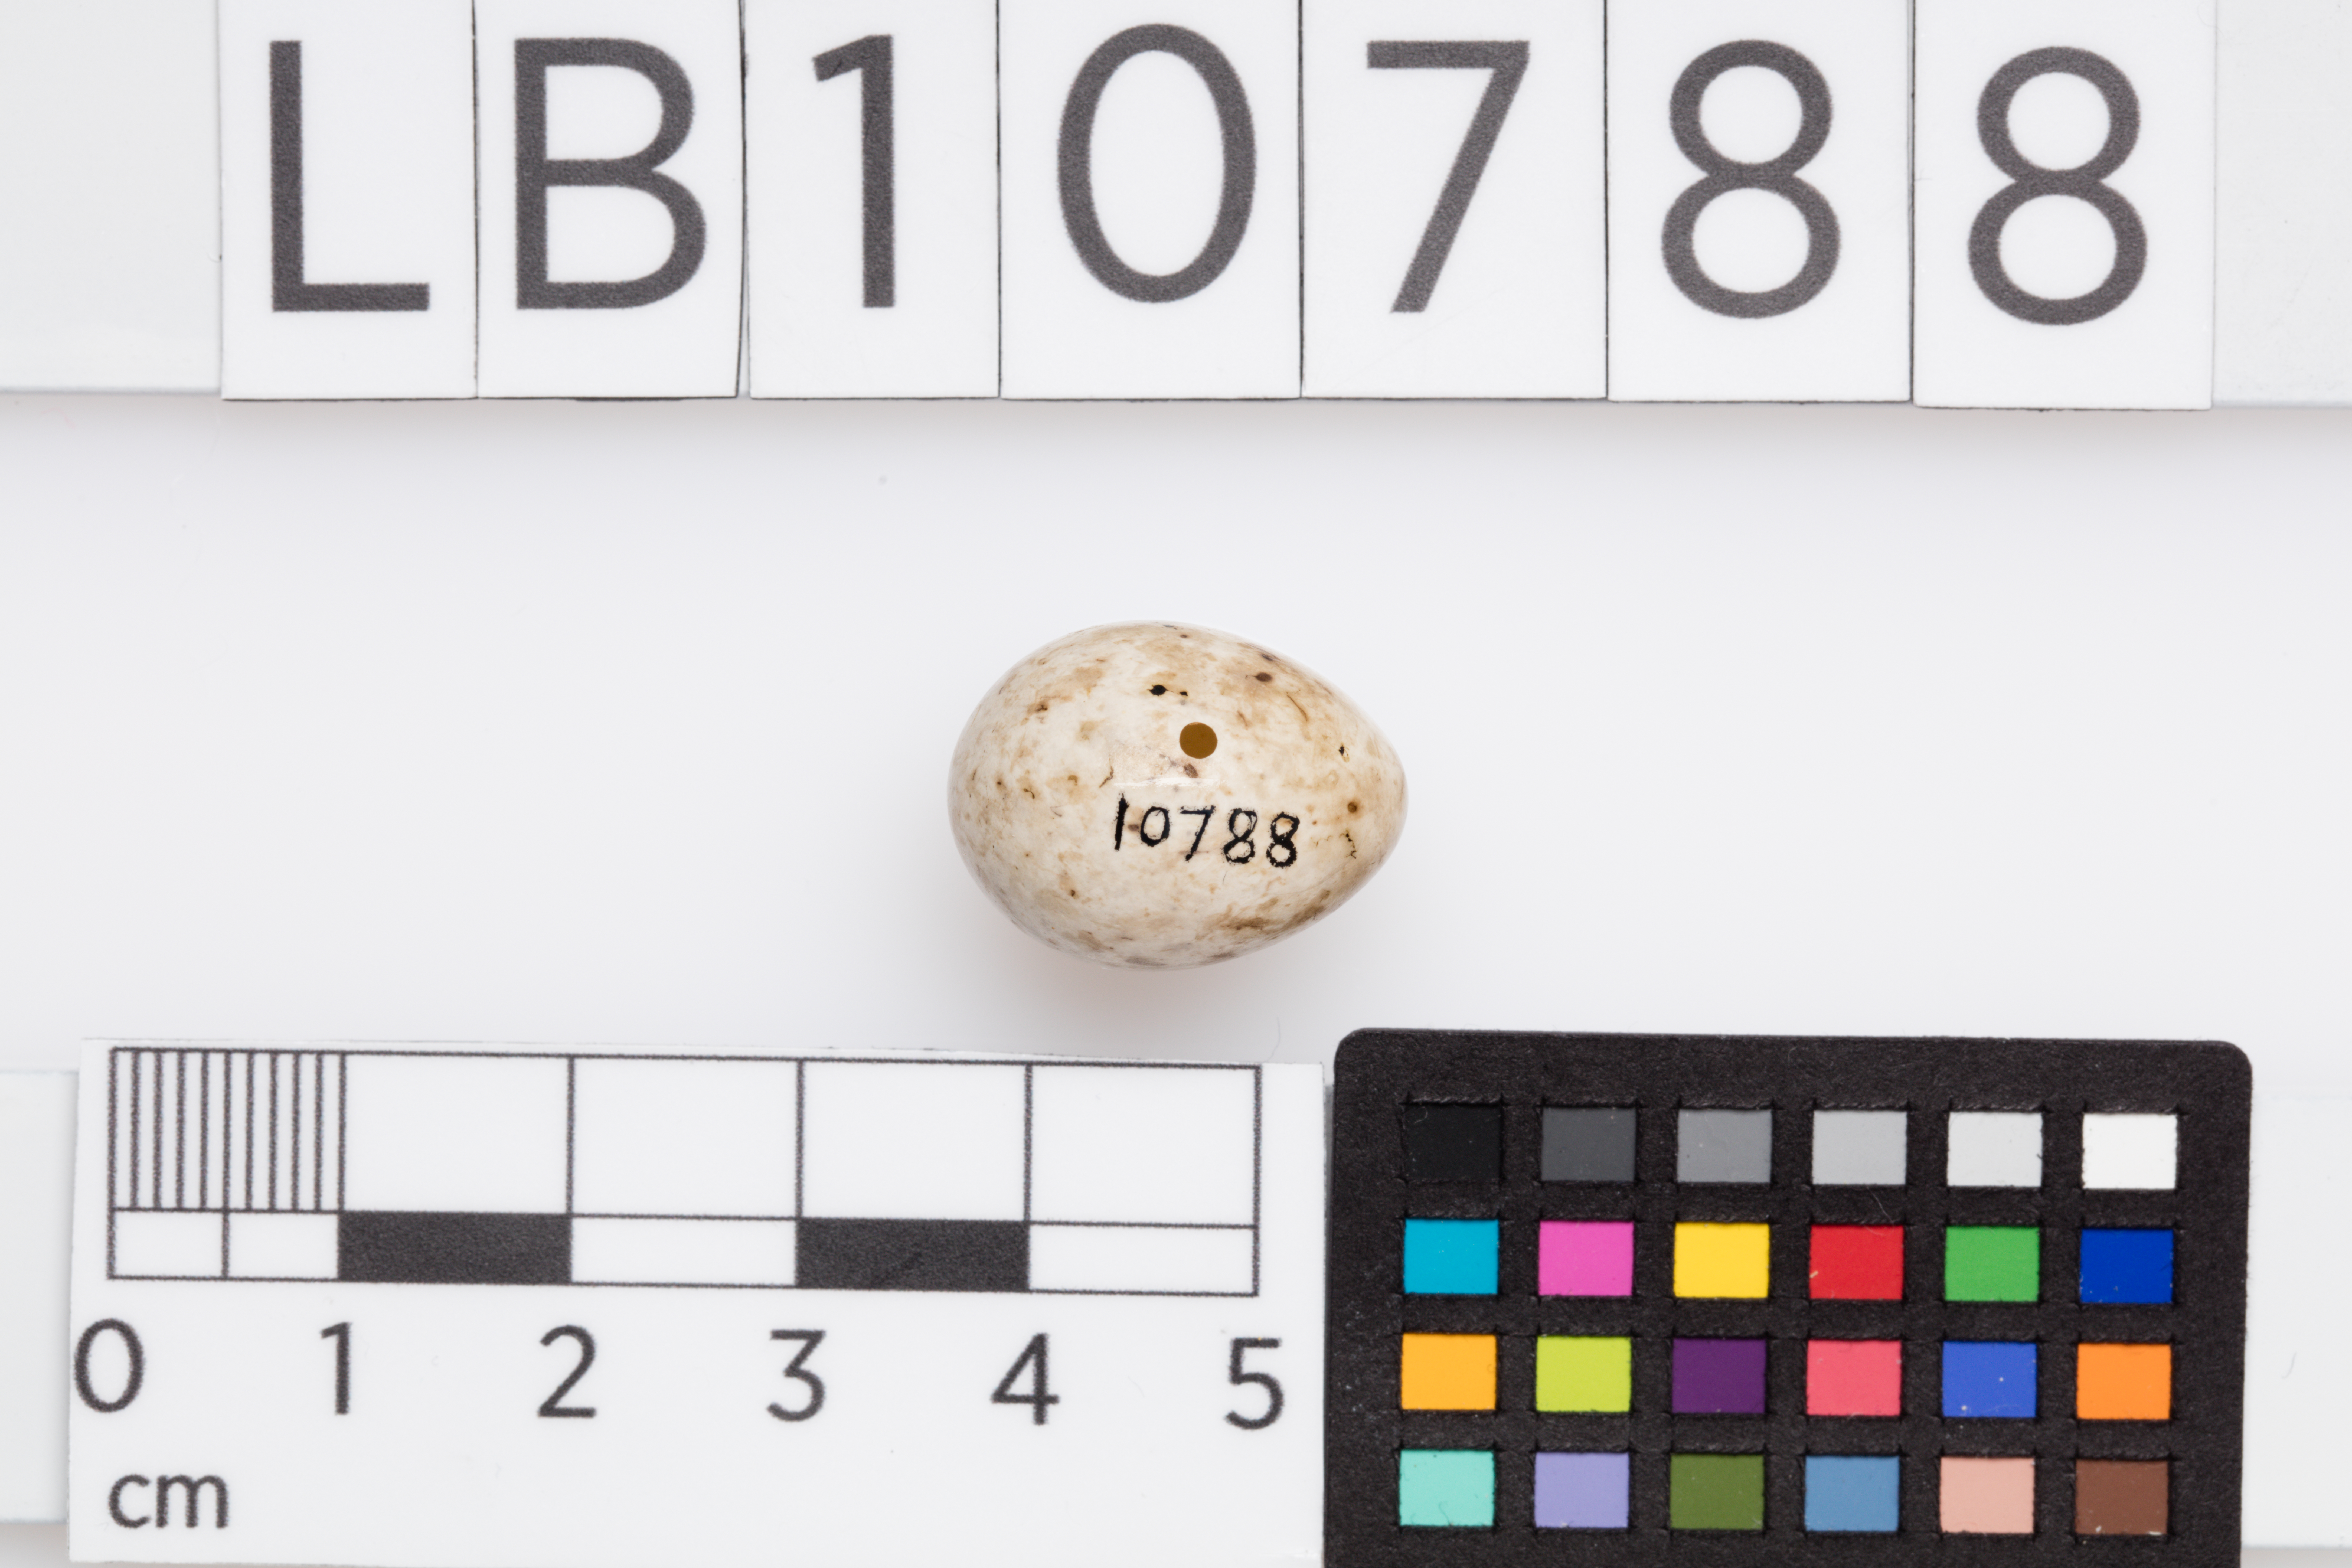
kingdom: Animalia
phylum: Chordata
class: Aves
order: Passeriformes
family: Sylviidae
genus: Sylvia
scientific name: Sylvia atricapilla
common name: Eurasian blackcap
